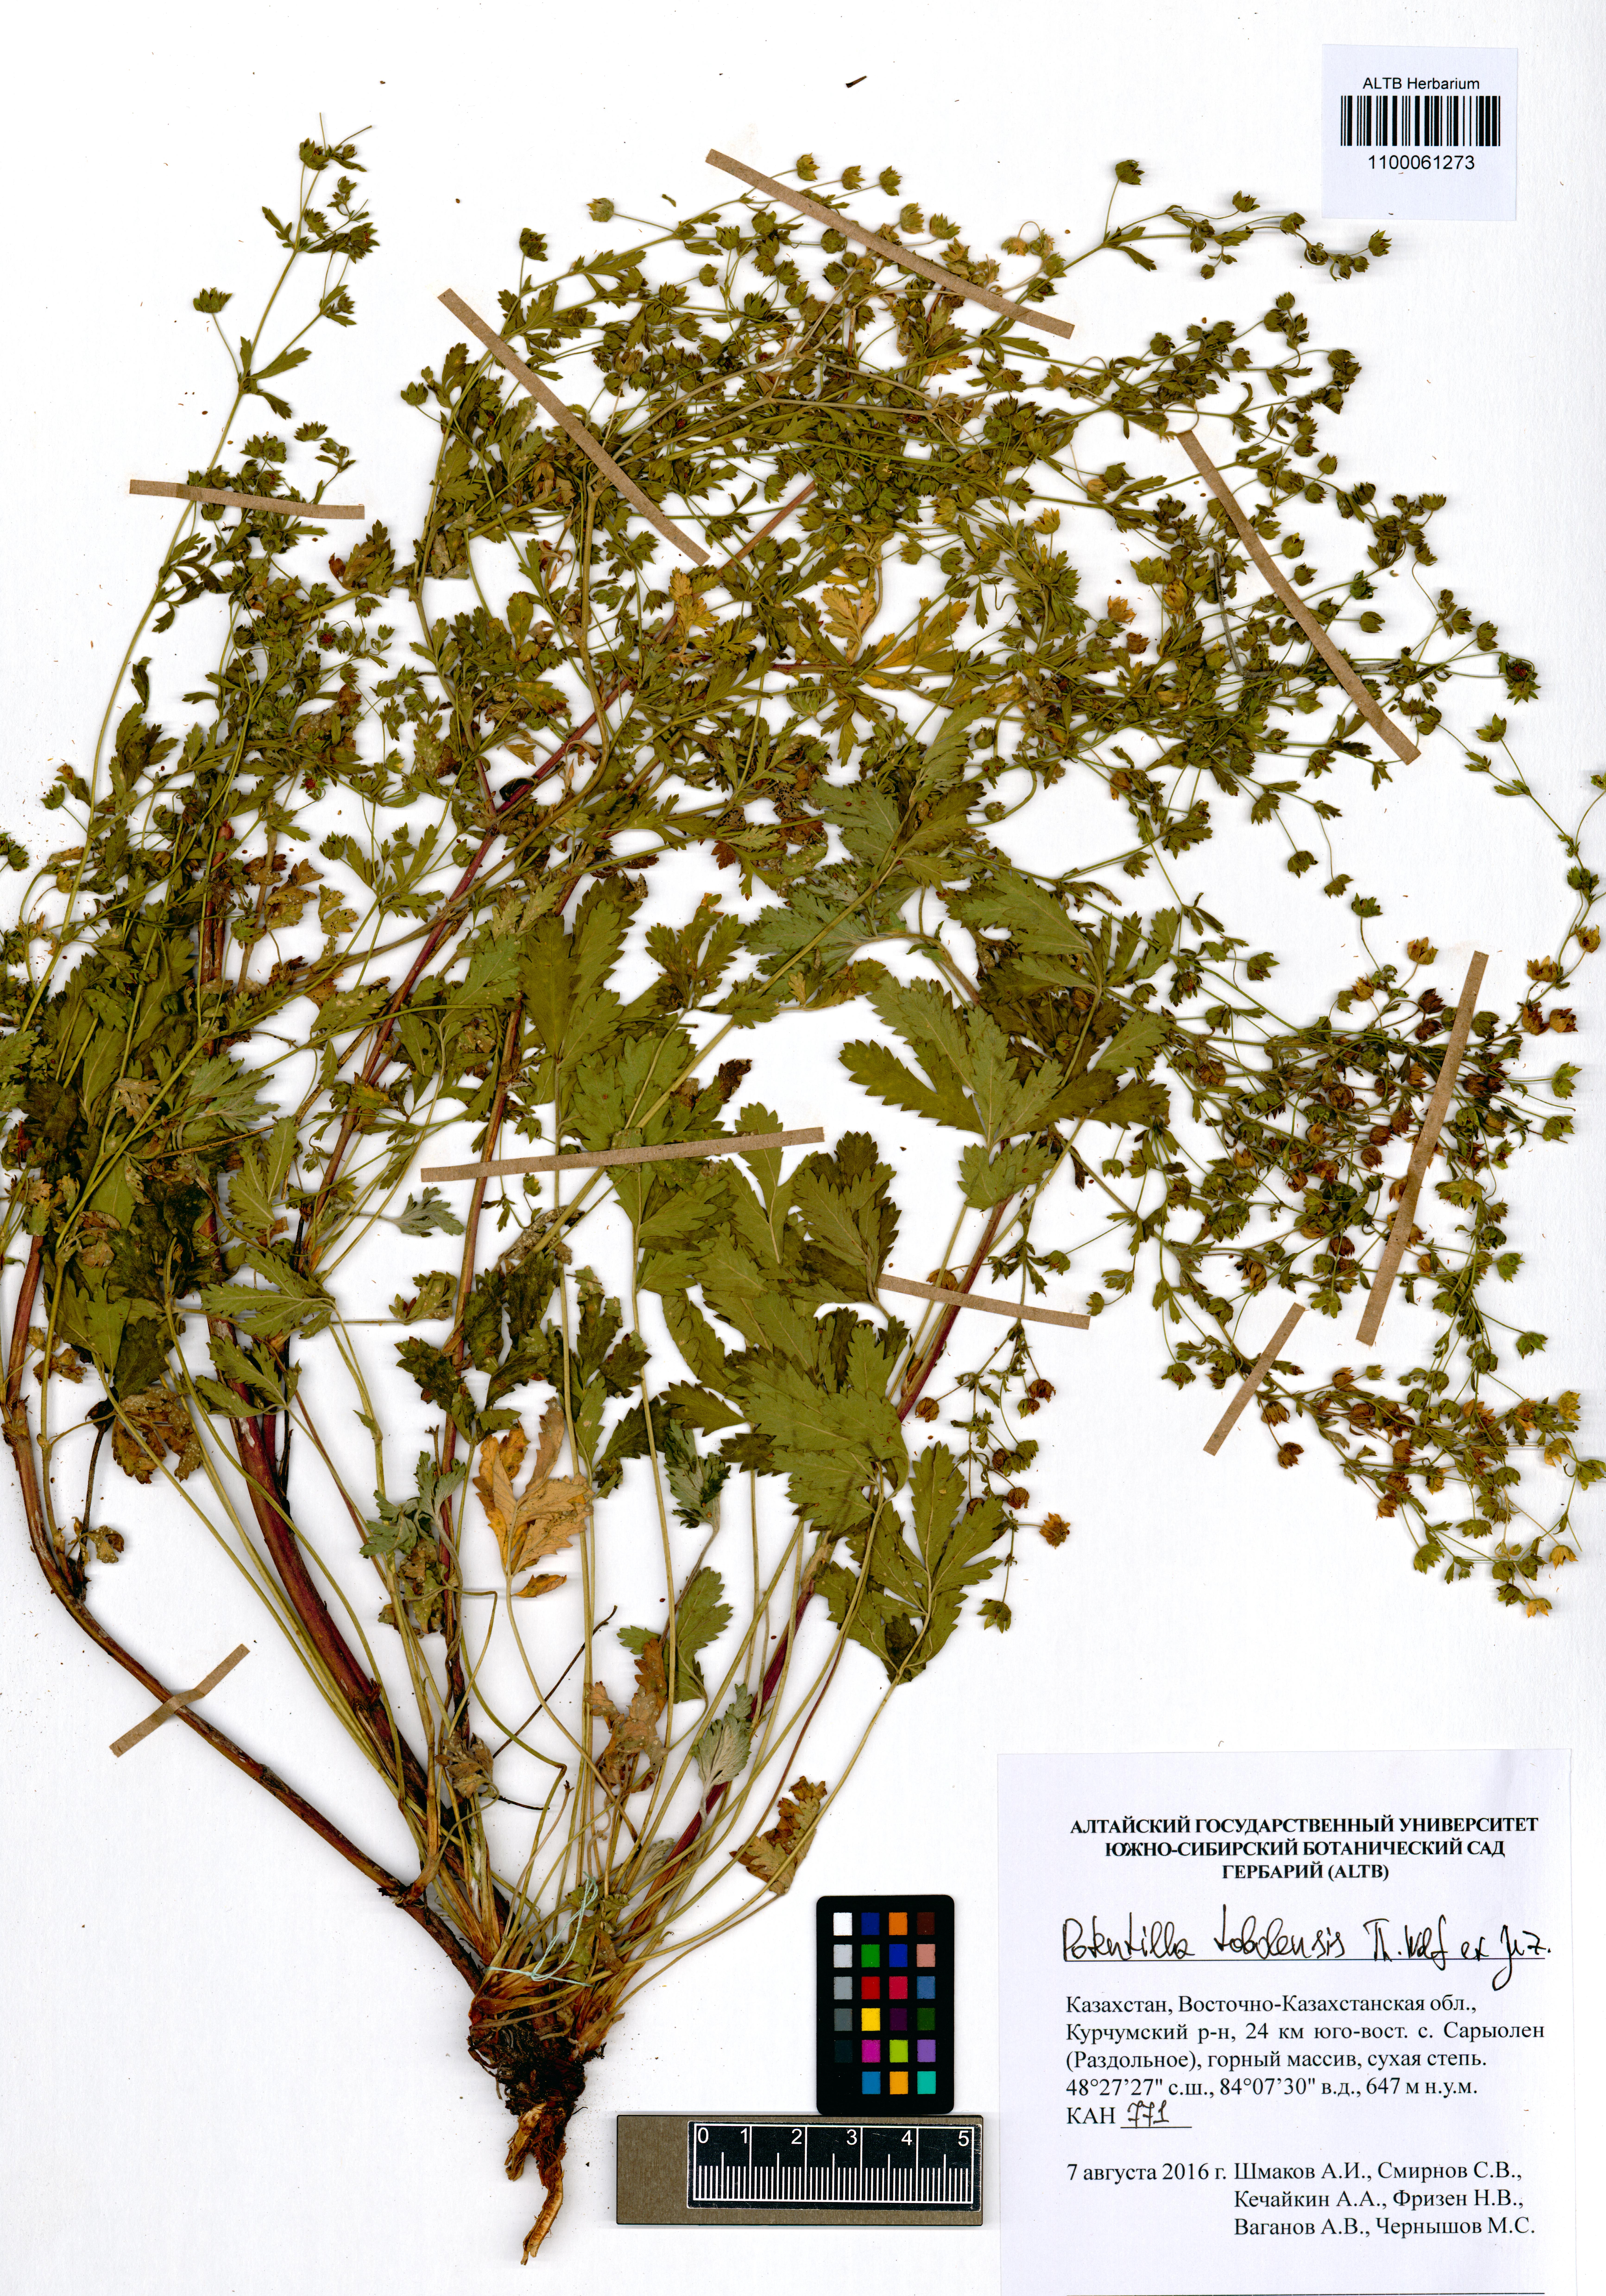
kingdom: Plantae
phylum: Tracheophyta
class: Magnoliopsida
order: Rosales
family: Rosaceae
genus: Potentilla
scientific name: Potentilla tobolensis
